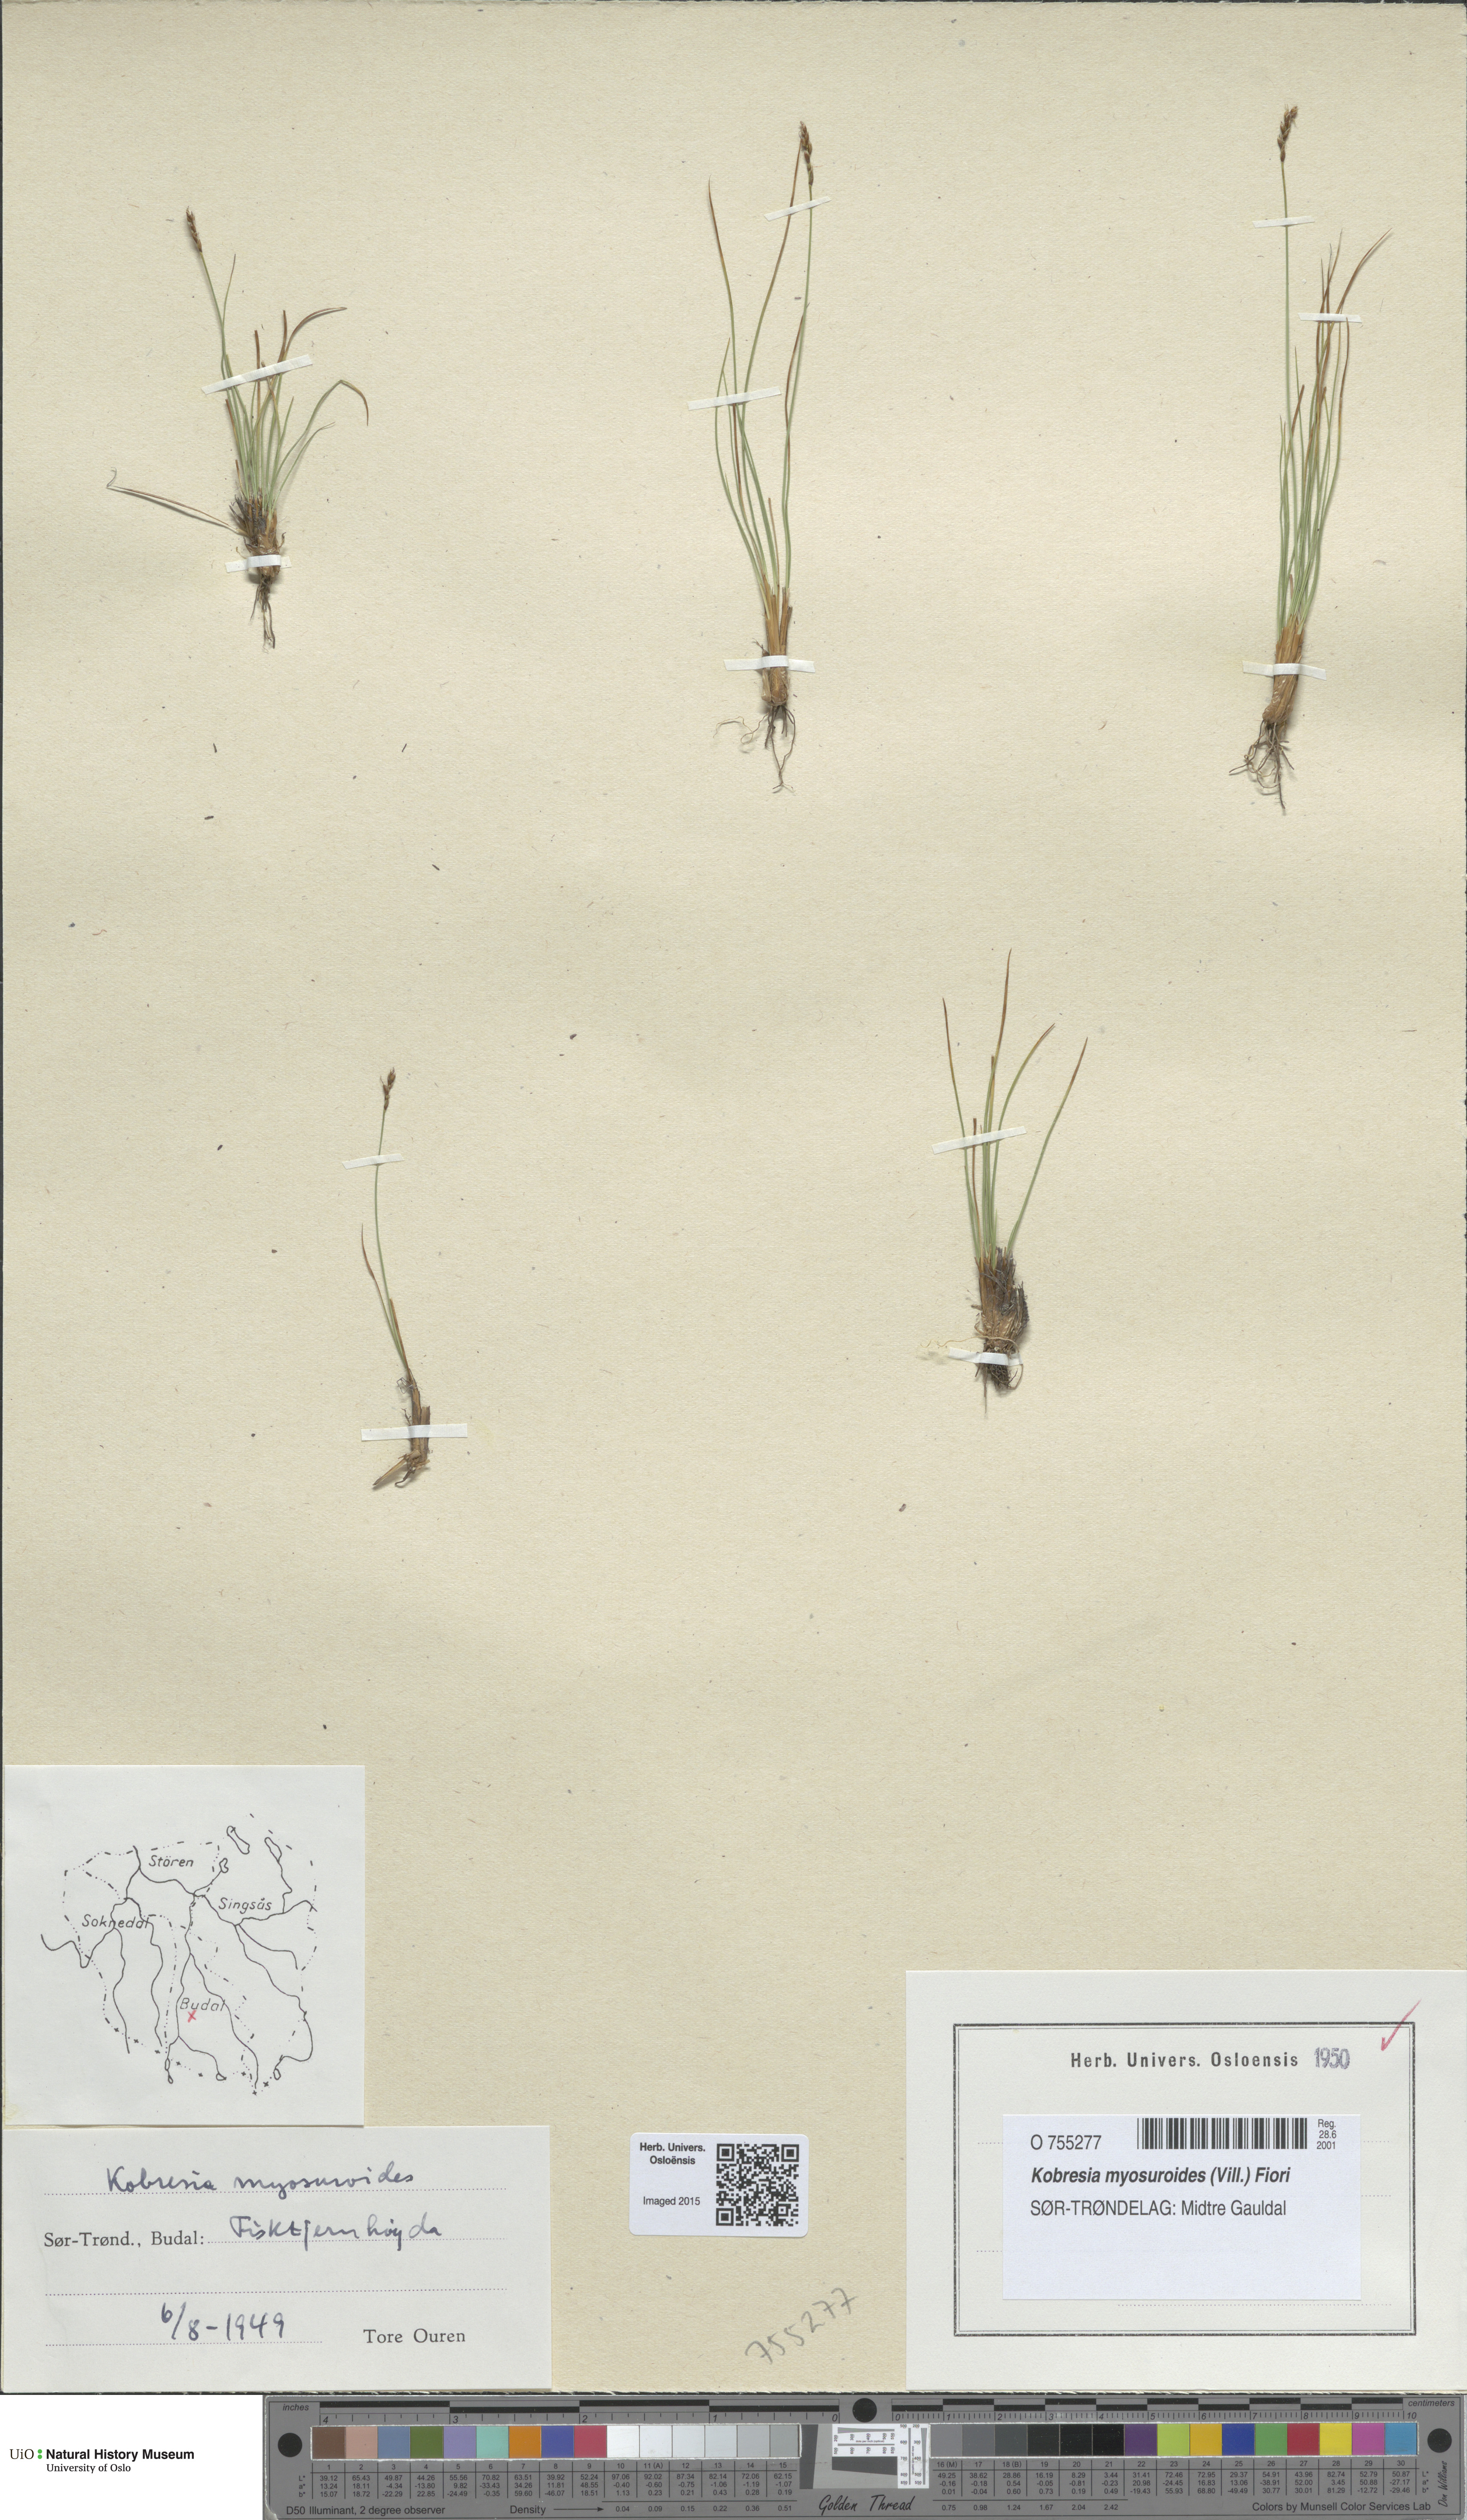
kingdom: Plantae
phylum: Tracheophyta
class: Liliopsida
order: Poales
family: Cyperaceae
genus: Carex
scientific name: Carex myosuroides
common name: Bellard's bog sedge
